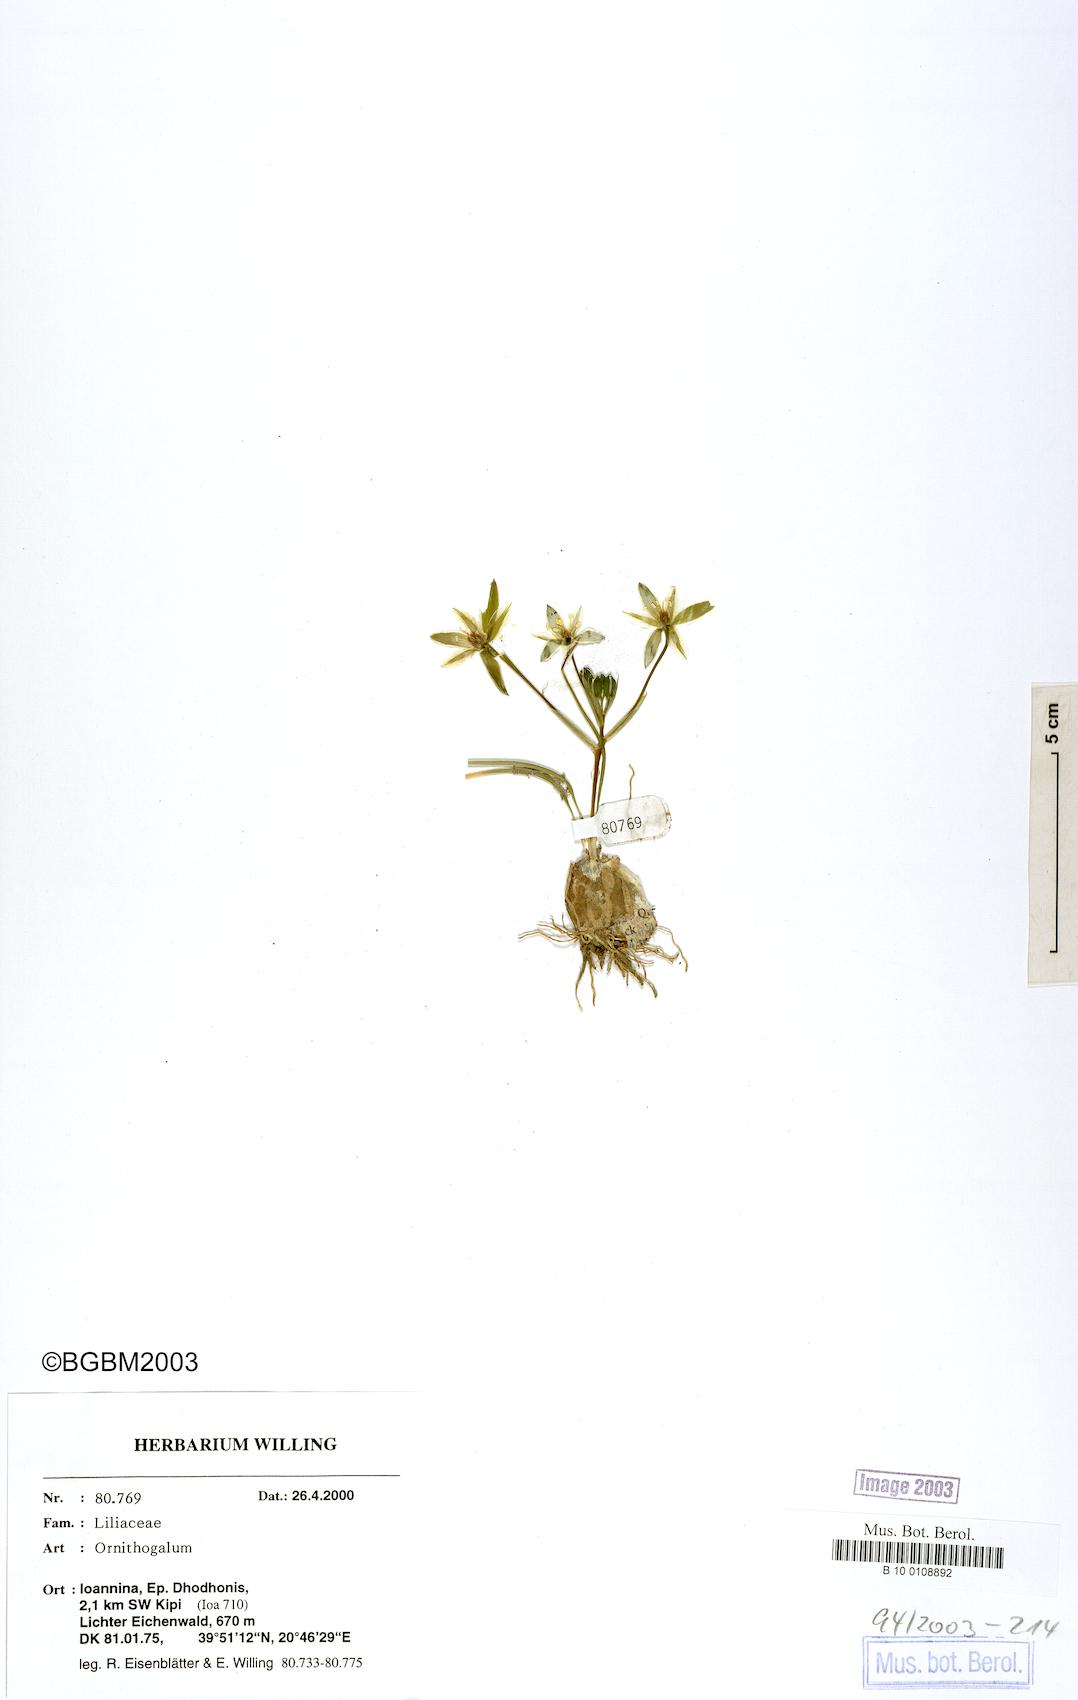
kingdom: Plantae
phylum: Tracheophyta
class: Liliopsida
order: Asparagales
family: Asparagaceae
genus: Ornithogalum
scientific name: Ornithogalum
